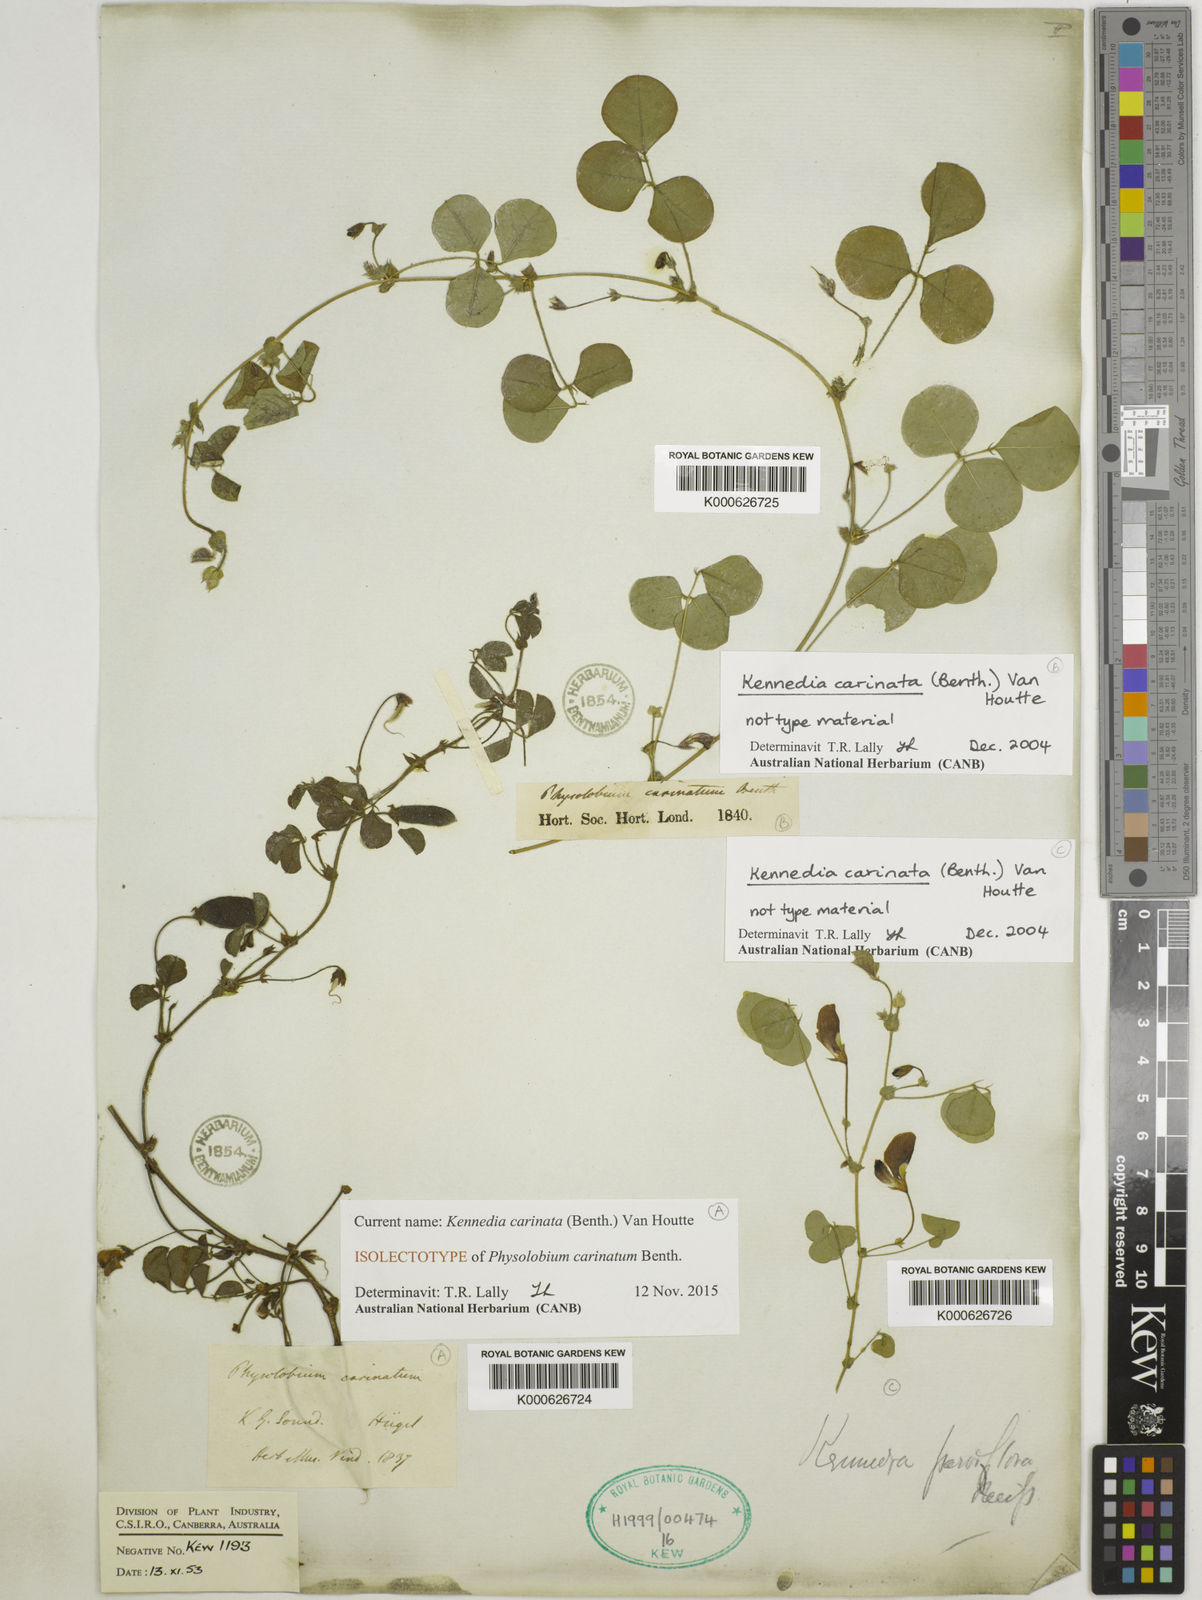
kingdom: Plantae
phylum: Tracheophyta
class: Magnoliopsida
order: Fabales
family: Fabaceae
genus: Kennedia
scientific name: Kennedia carinata
